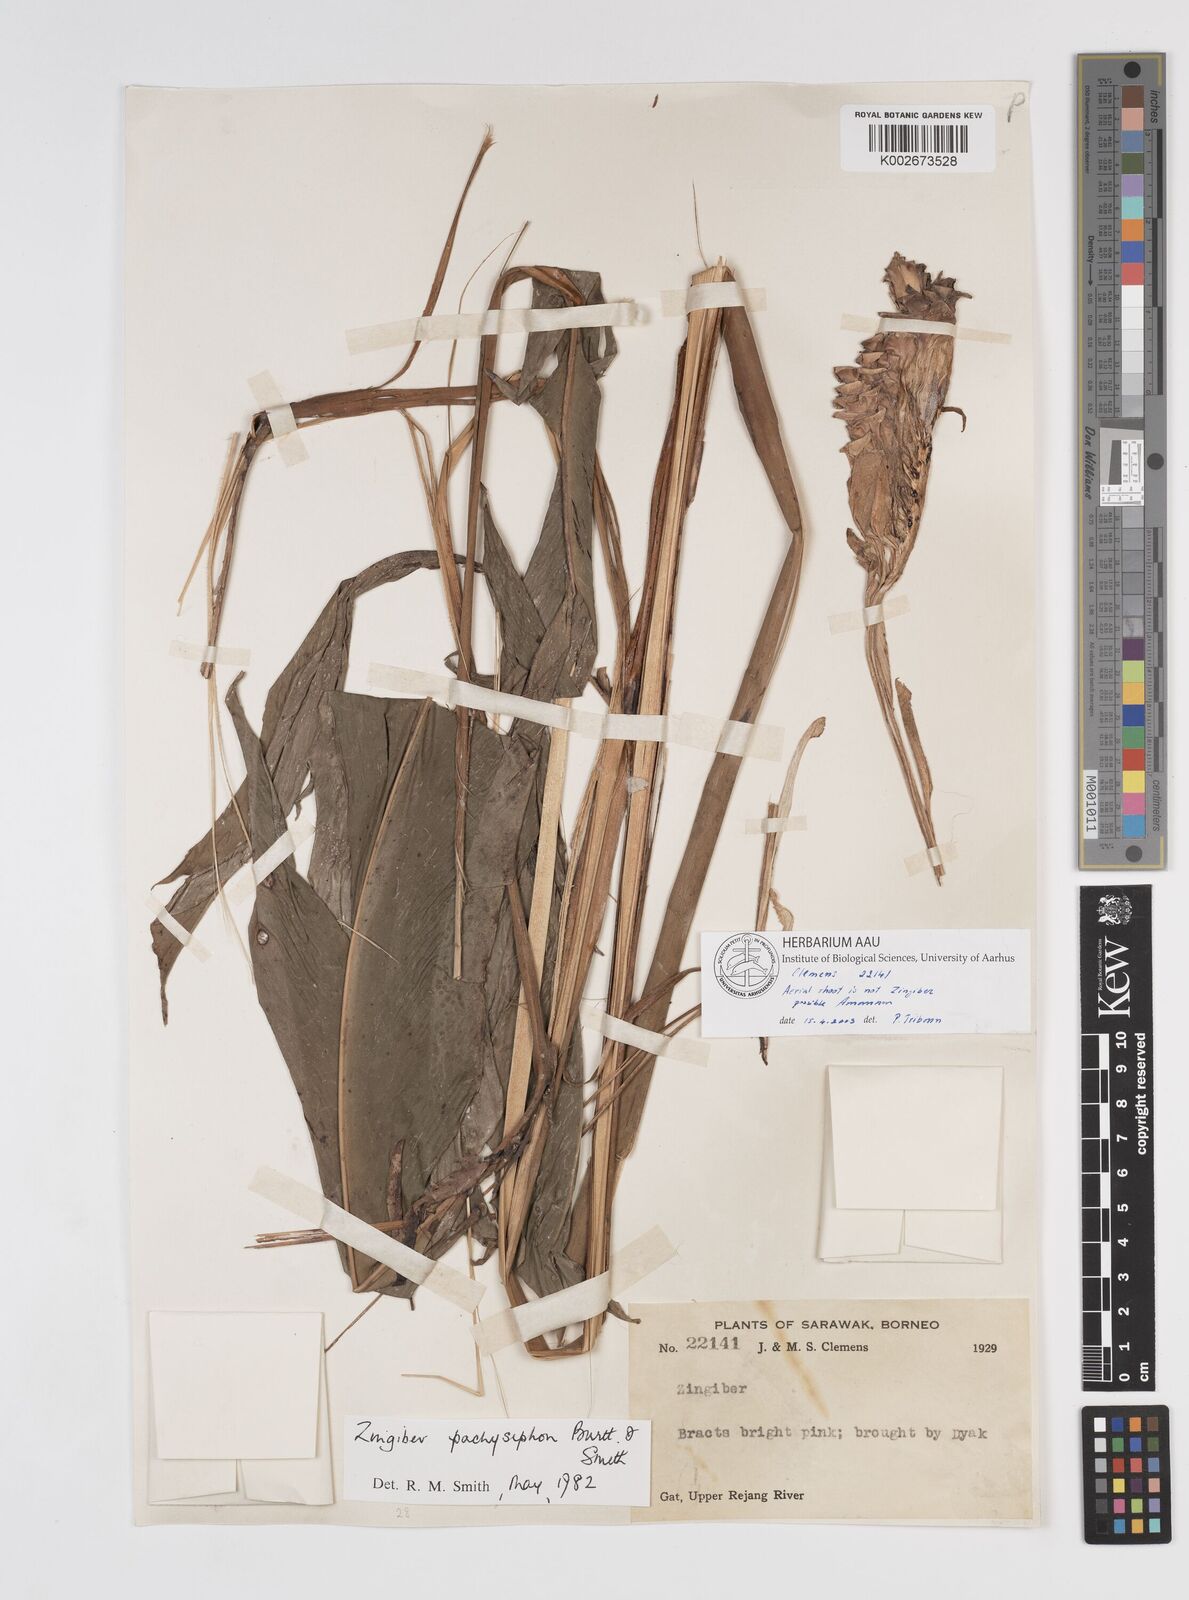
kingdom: Plantae
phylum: Tracheophyta
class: Liliopsida
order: Zingiberales
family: Zingiberaceae
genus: Amomum
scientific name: Amomum
